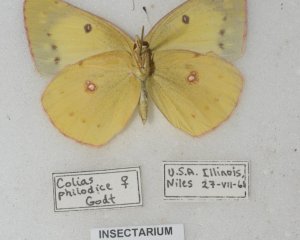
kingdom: Animalia
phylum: Arthropoda
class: Insecta
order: Lepidoptera
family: Pieridae
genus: Colias
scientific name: Colias philodice
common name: Clouded Sulphur
